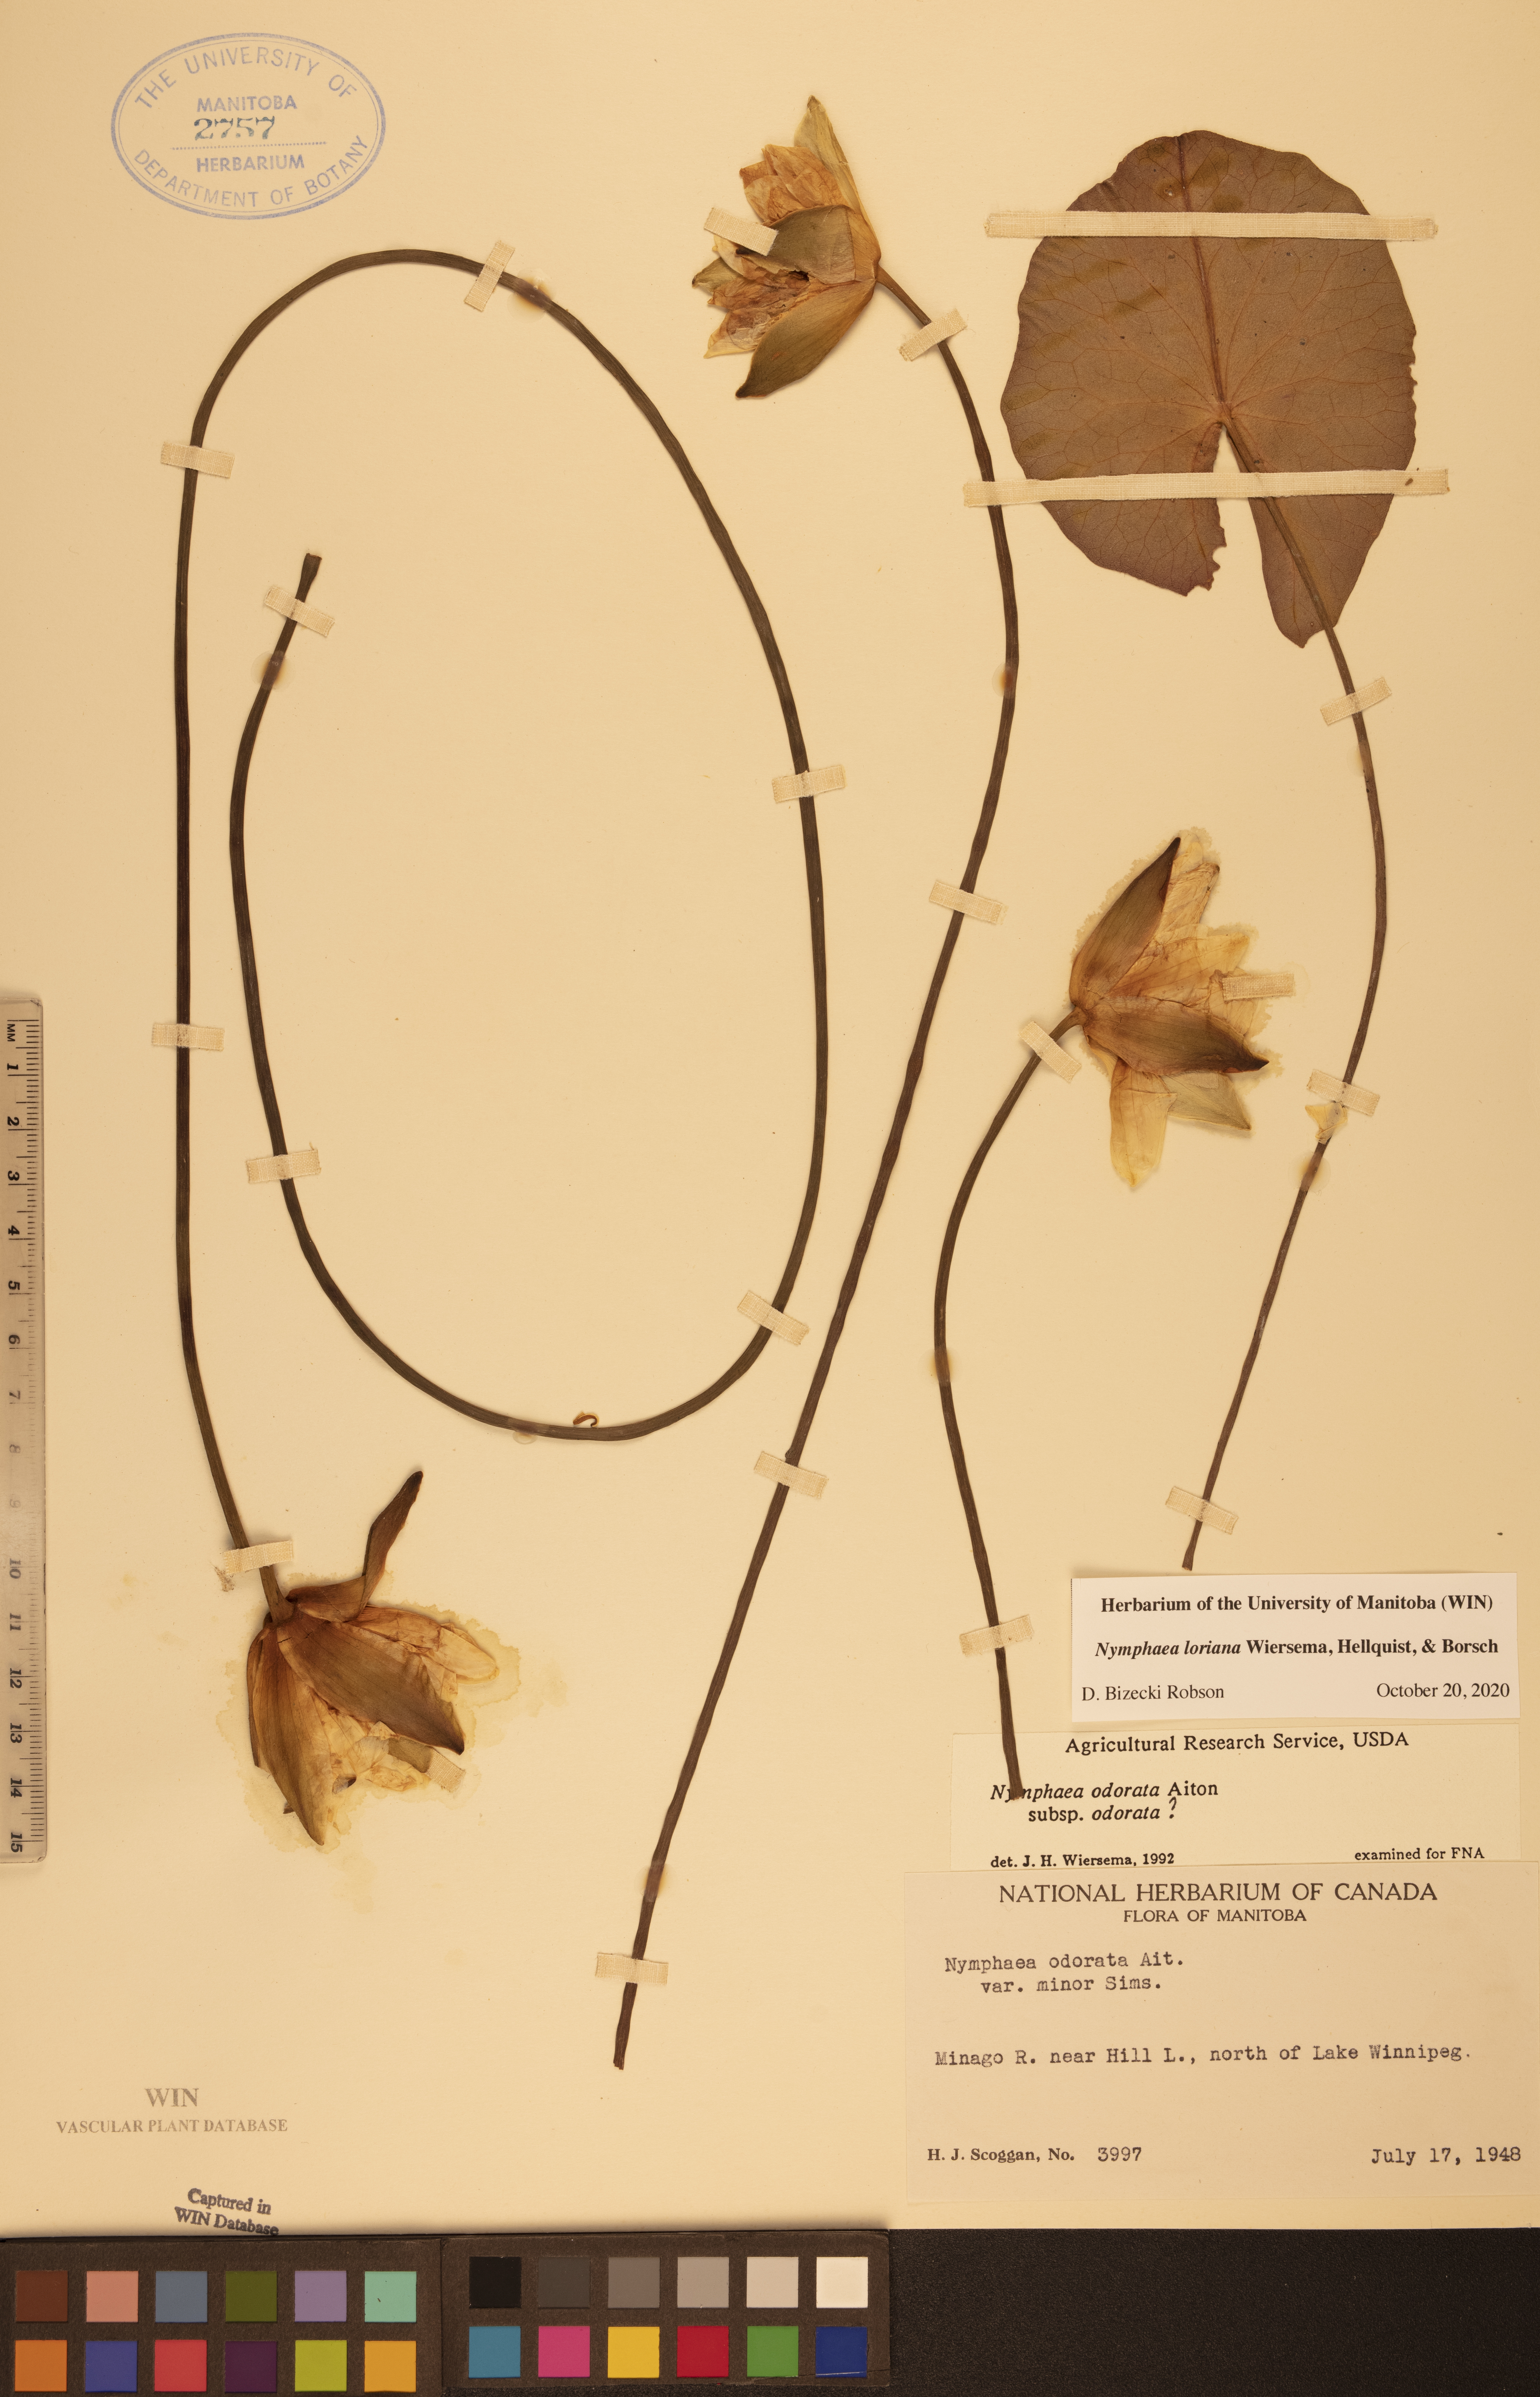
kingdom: Plantae
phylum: Tracheophyta
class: Magnoliopsida
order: Nymphaeales
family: Nymphaeaceae
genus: Nymphaea
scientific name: Nymphaea loriana
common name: Lori's water-lily
